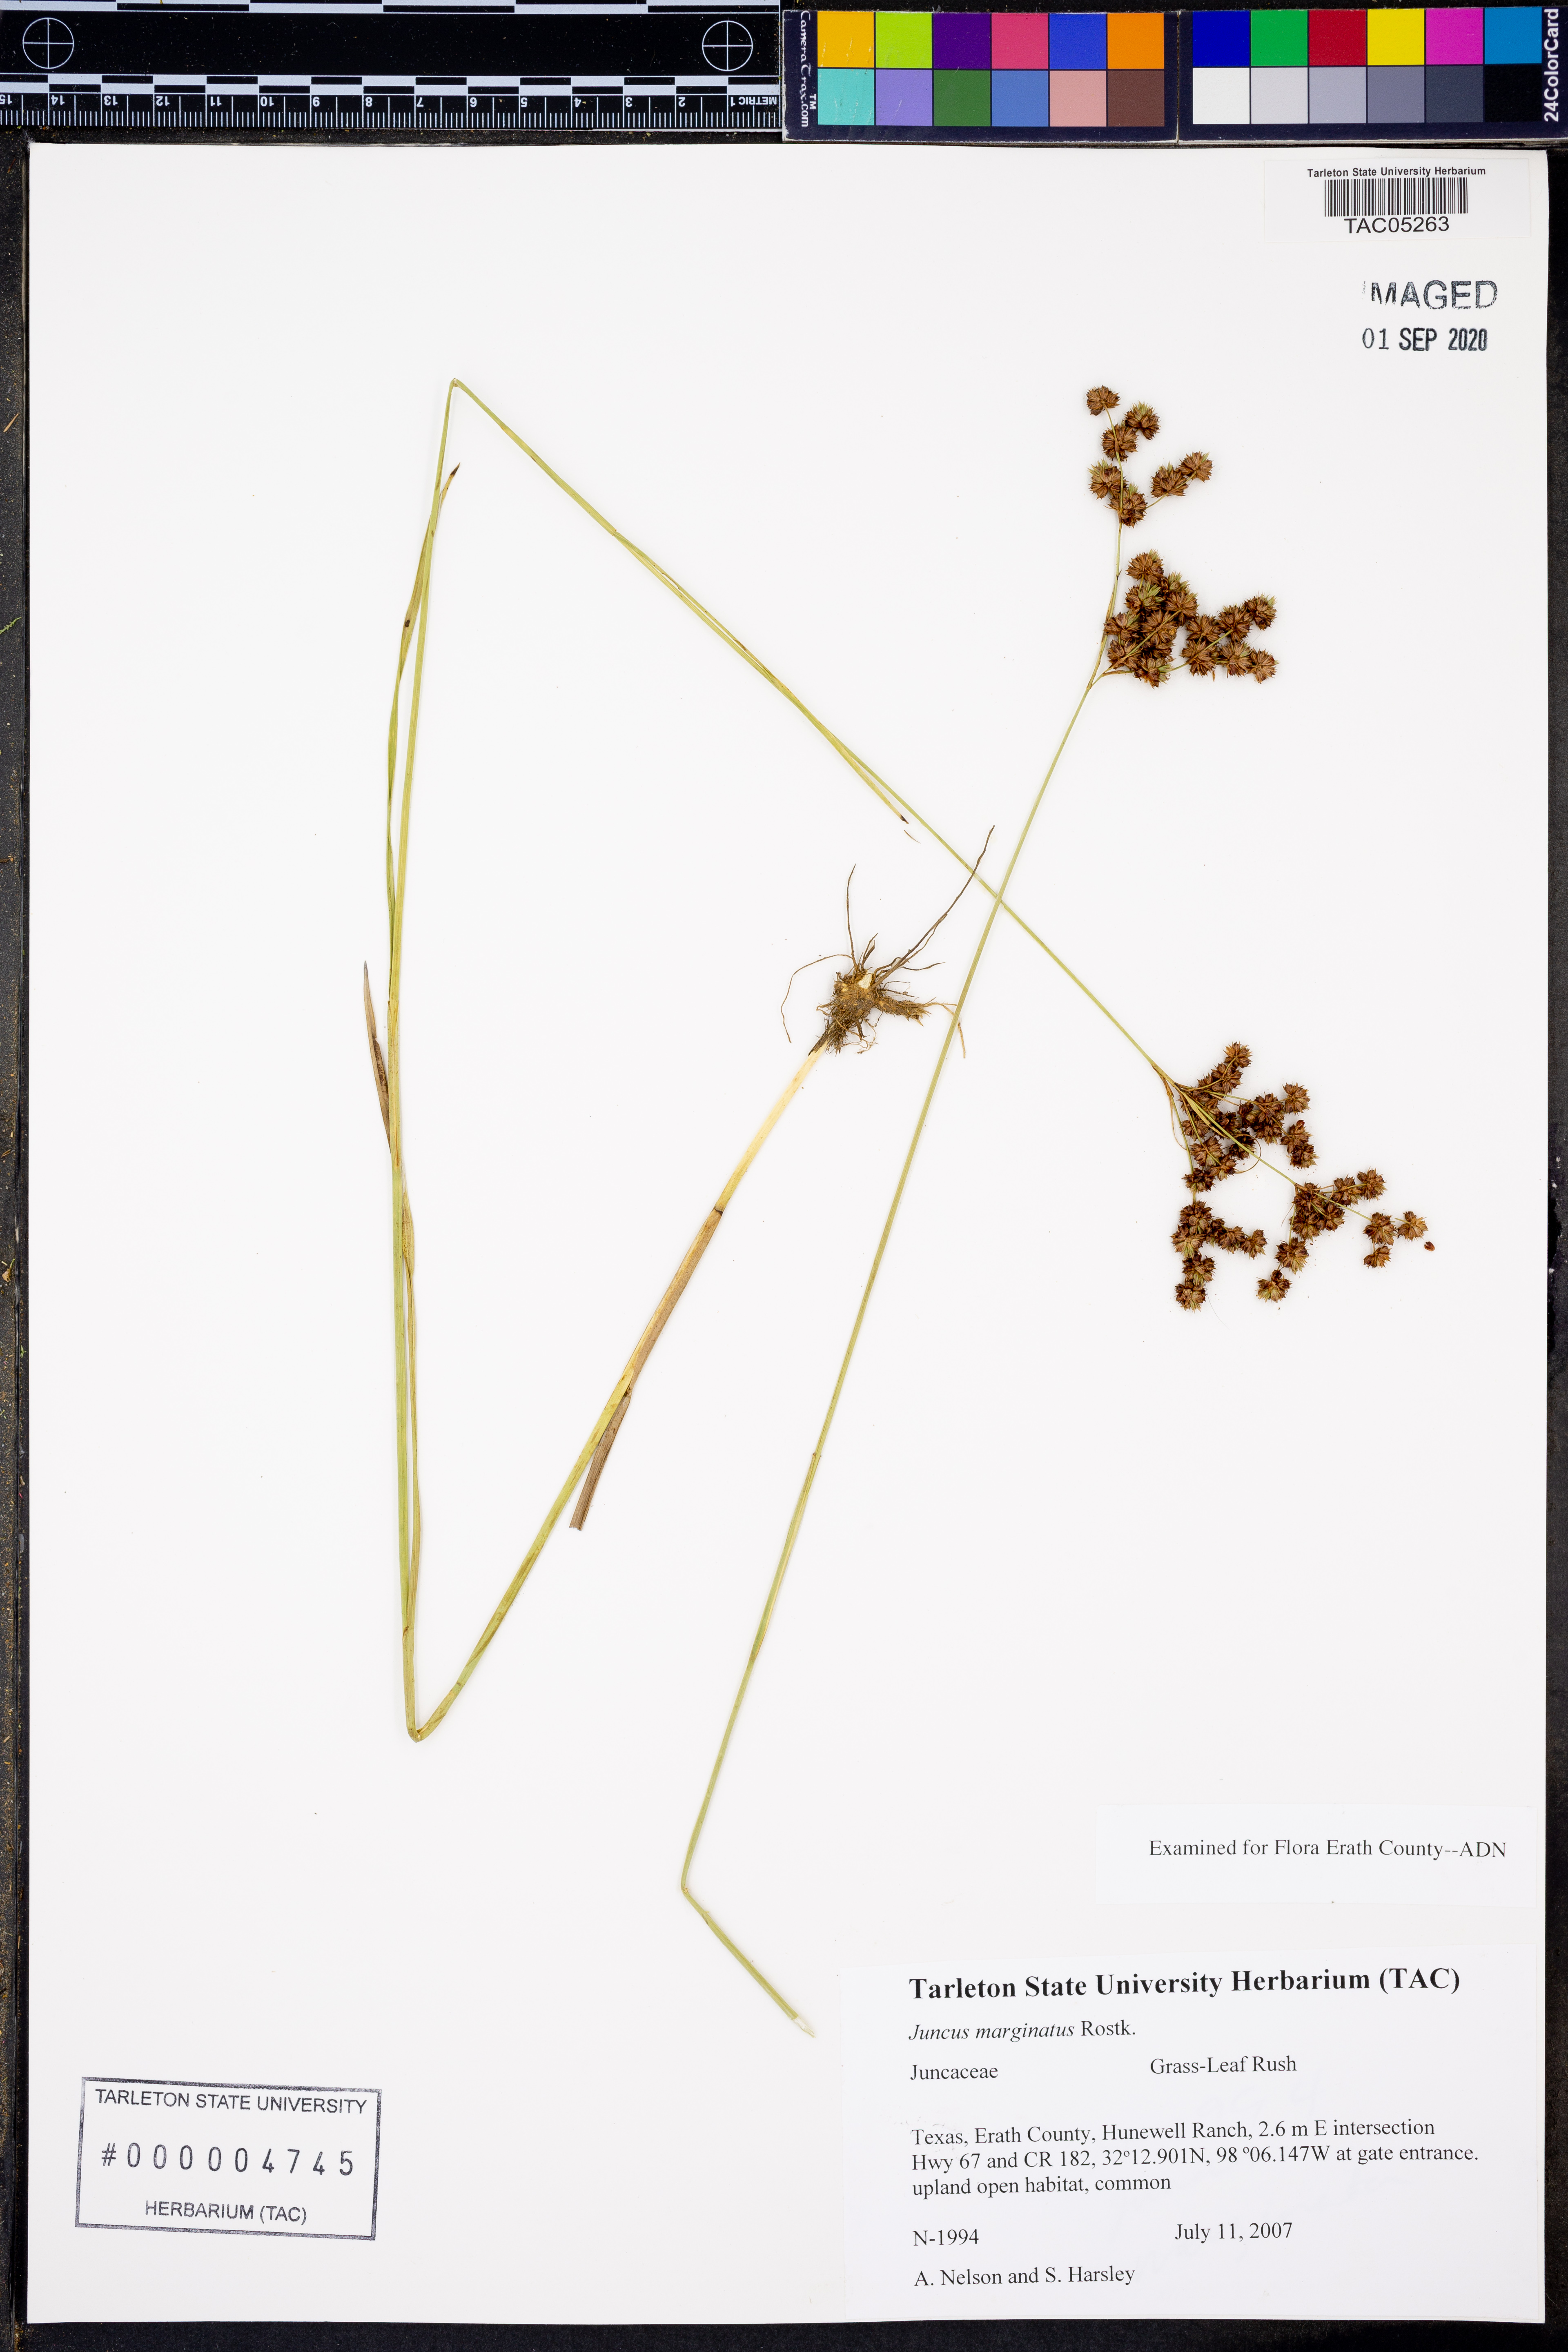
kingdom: Plantae
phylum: Tracheophyta
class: Liliopsida
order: Poales
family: Juncaceae
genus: Juncus
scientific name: Juncus marginatus
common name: Grass-leaf rush
